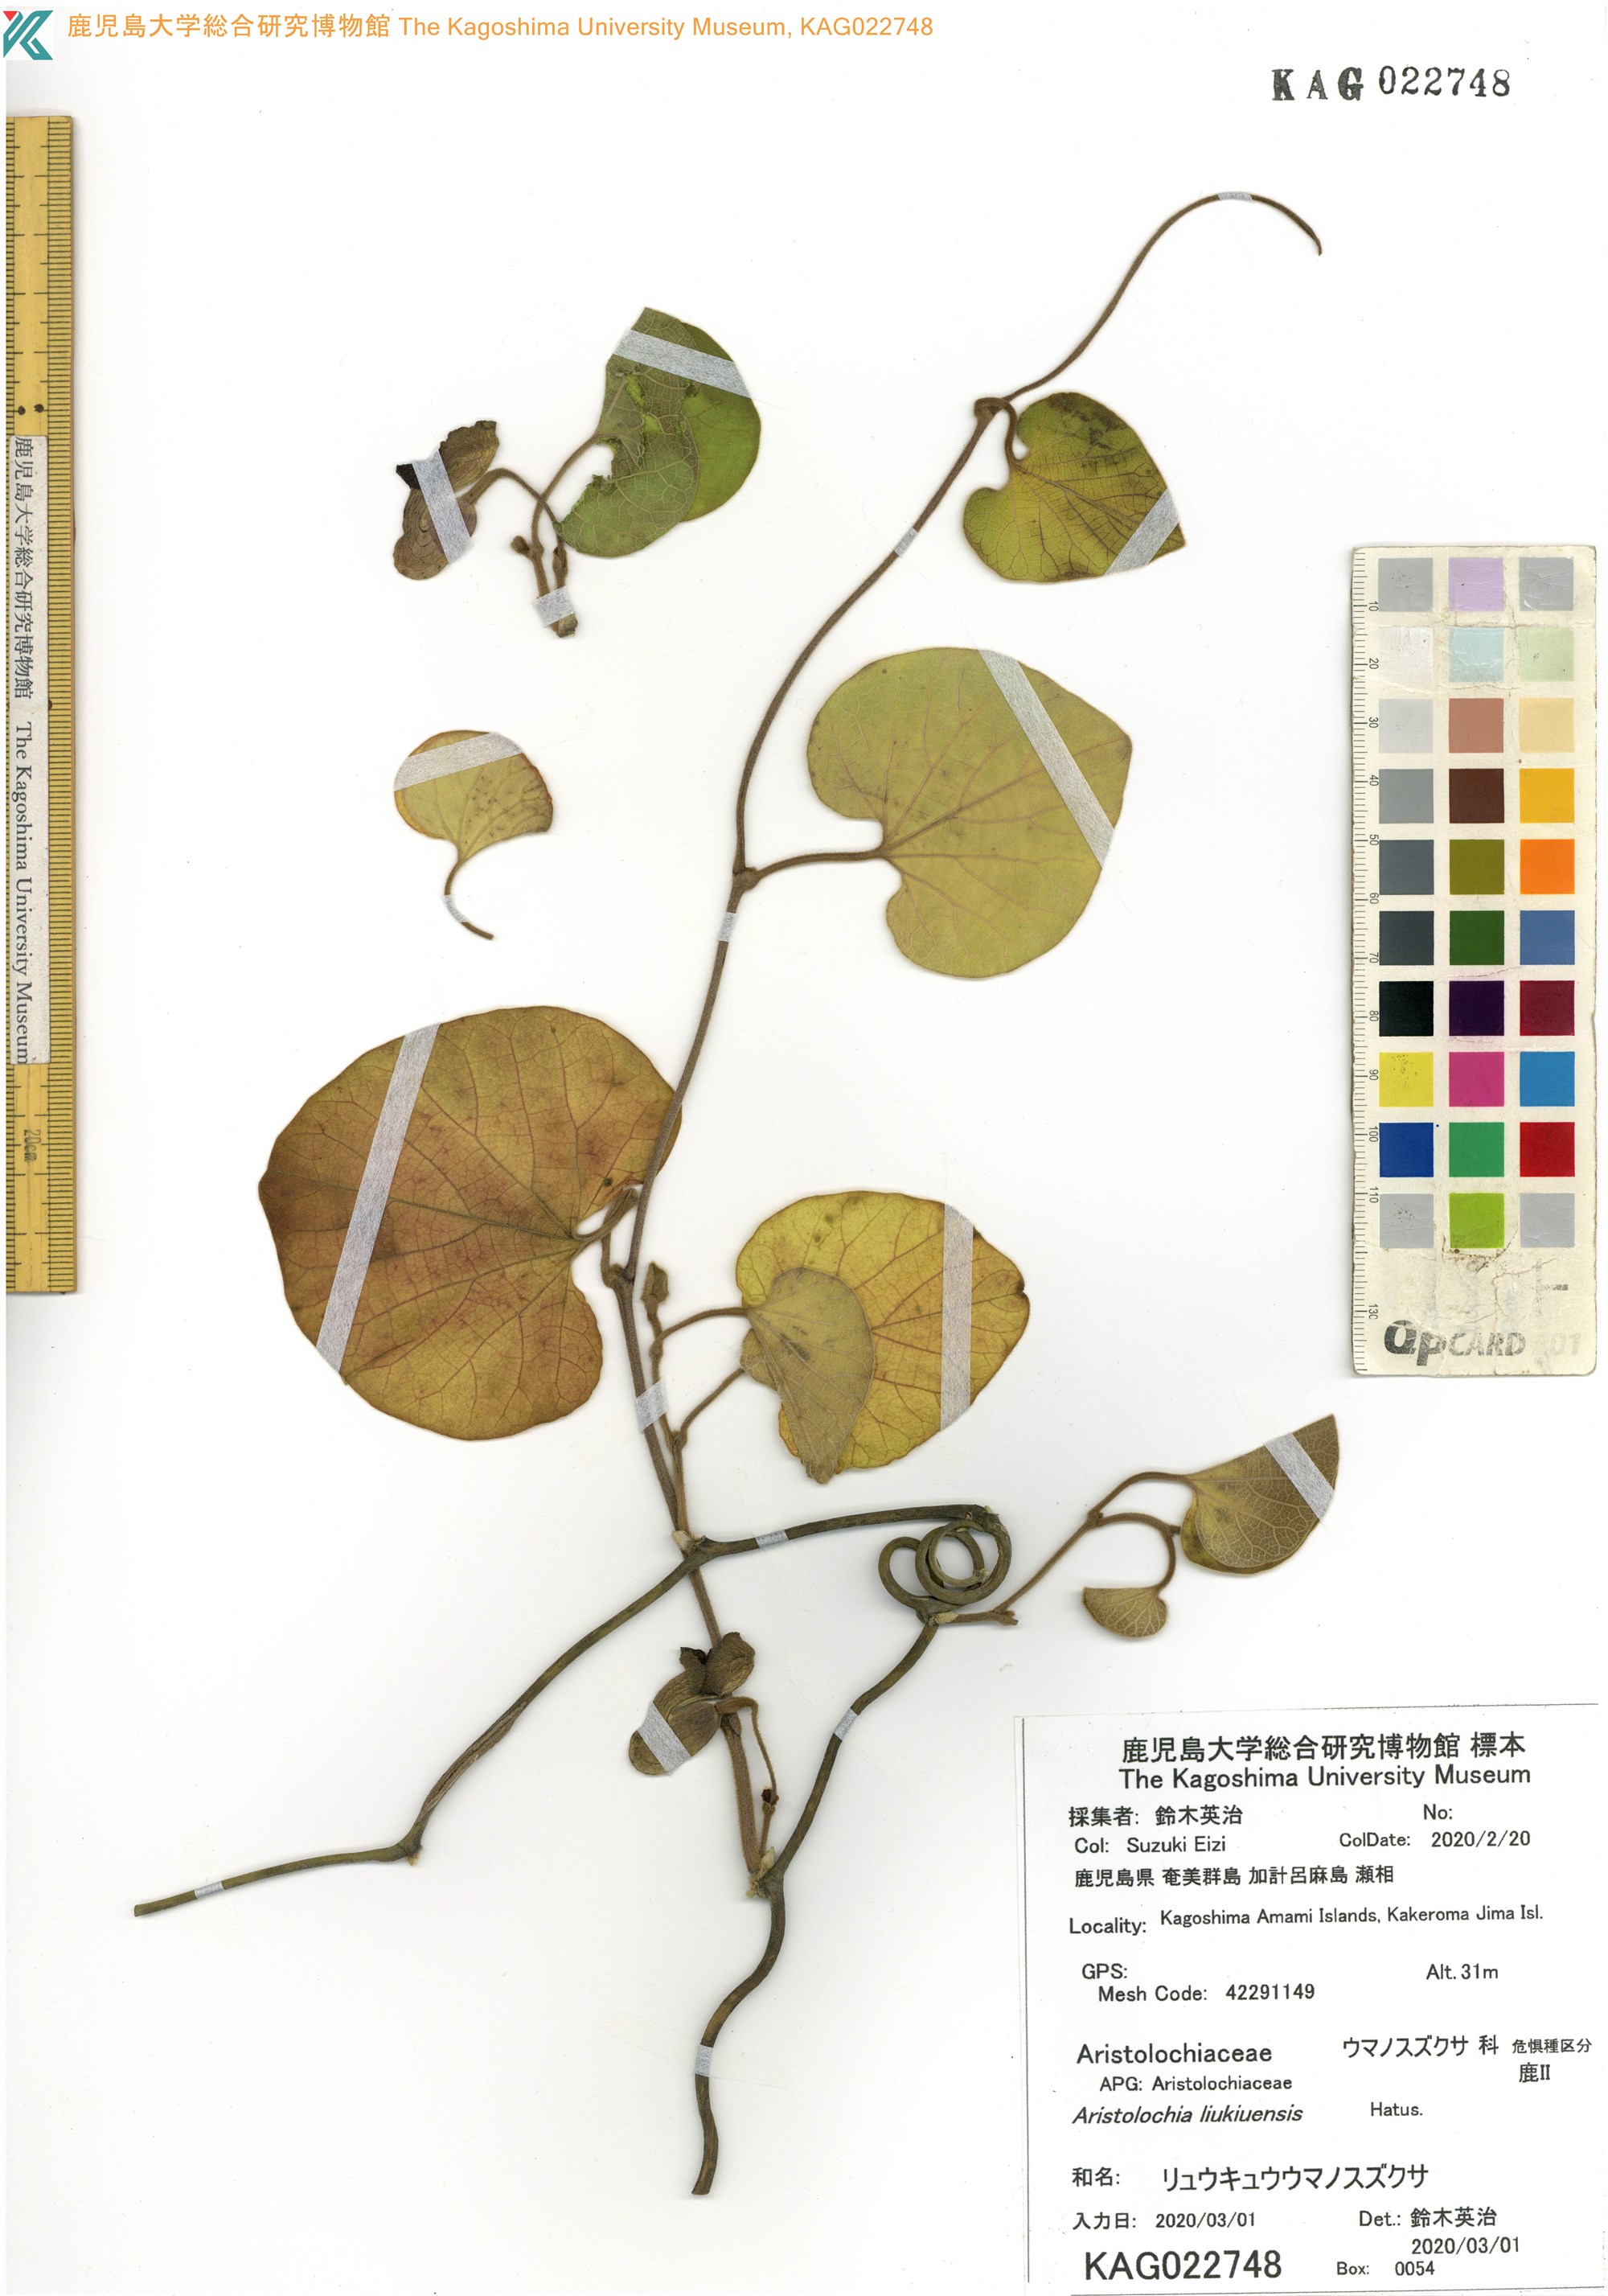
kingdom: Plantae
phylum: Tracheophyta
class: Magnoliopsida
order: Piperales
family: Aristolochiaceae
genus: Isotrema
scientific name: Isotrema liukiuense
